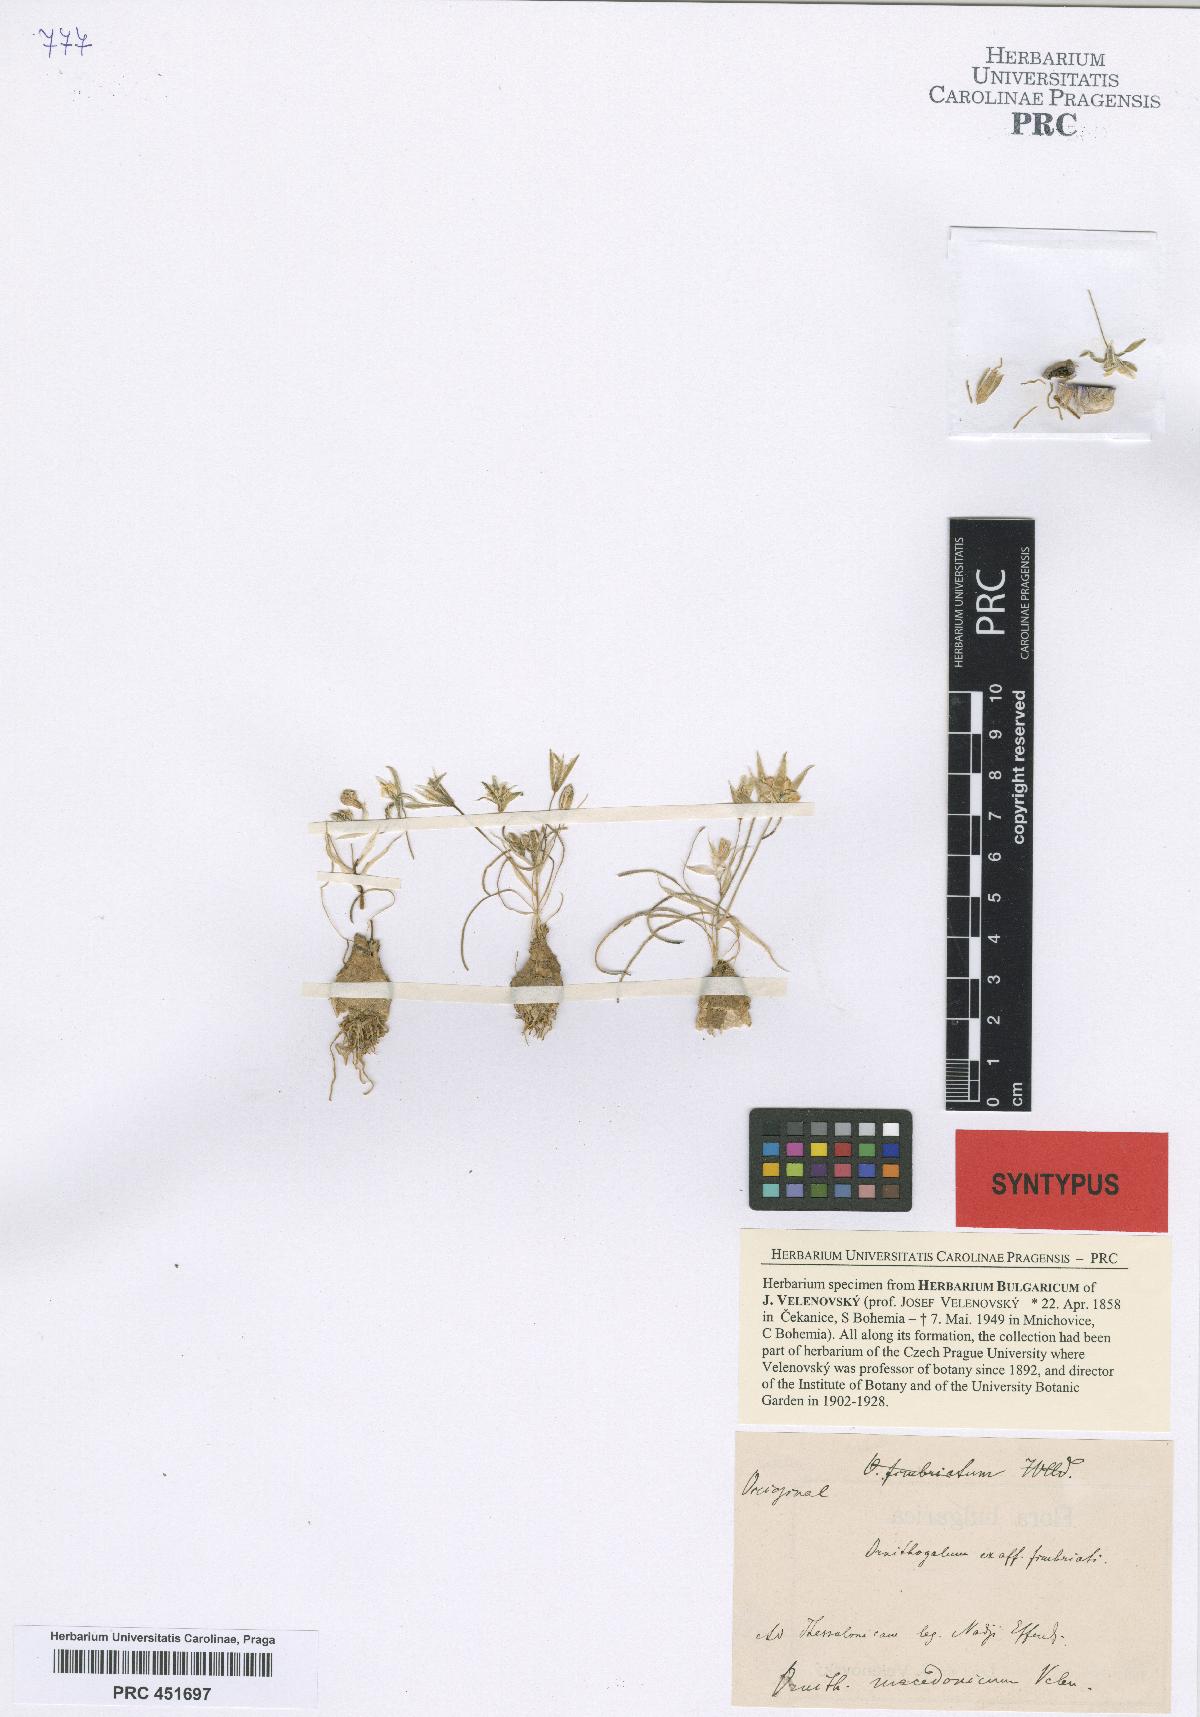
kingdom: Plantae
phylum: Tracheophyta
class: Liliopsida
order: Asparagales
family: Asparagaceae
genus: Ornithogalum
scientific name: Ornithogalum armeniacum
